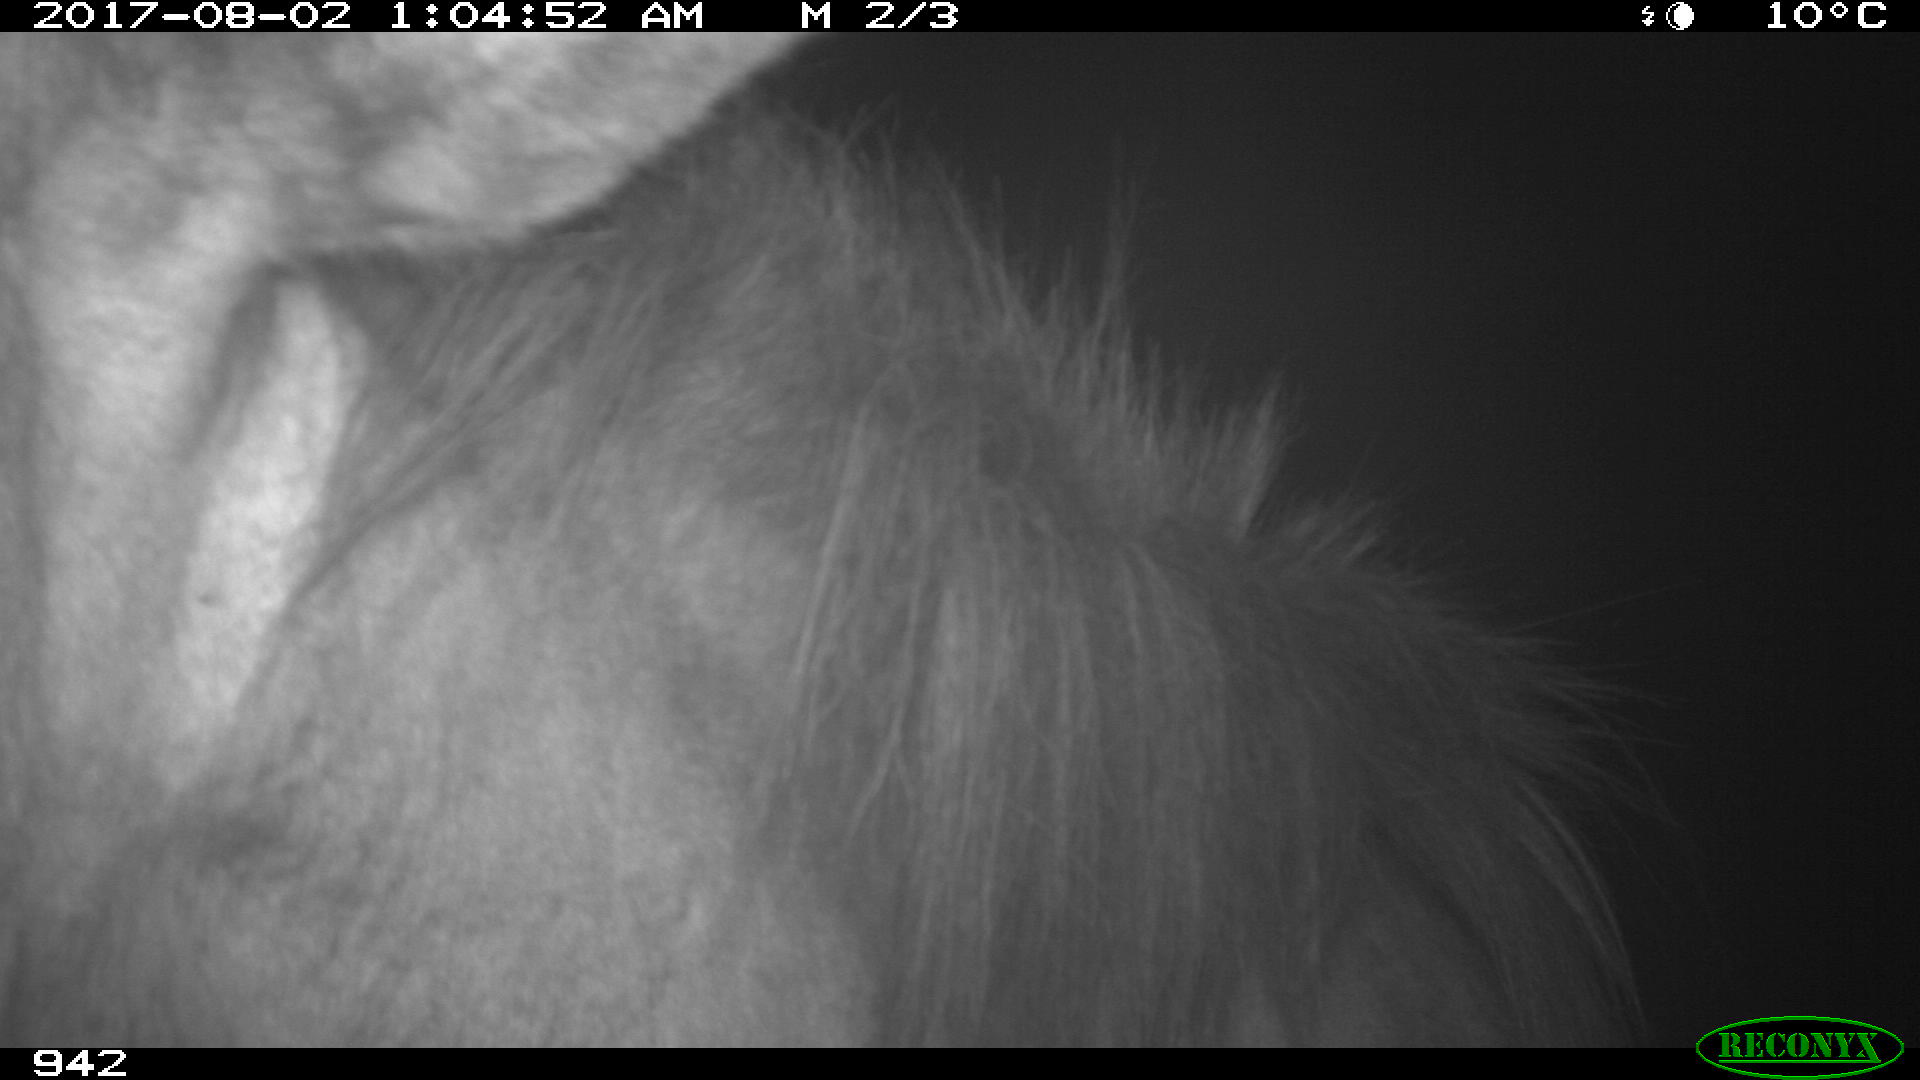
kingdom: Animalia
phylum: Chordata
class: Mammalia
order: Perissodactyla
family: Equidae
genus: Equus
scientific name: Equus caballus
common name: Horse
